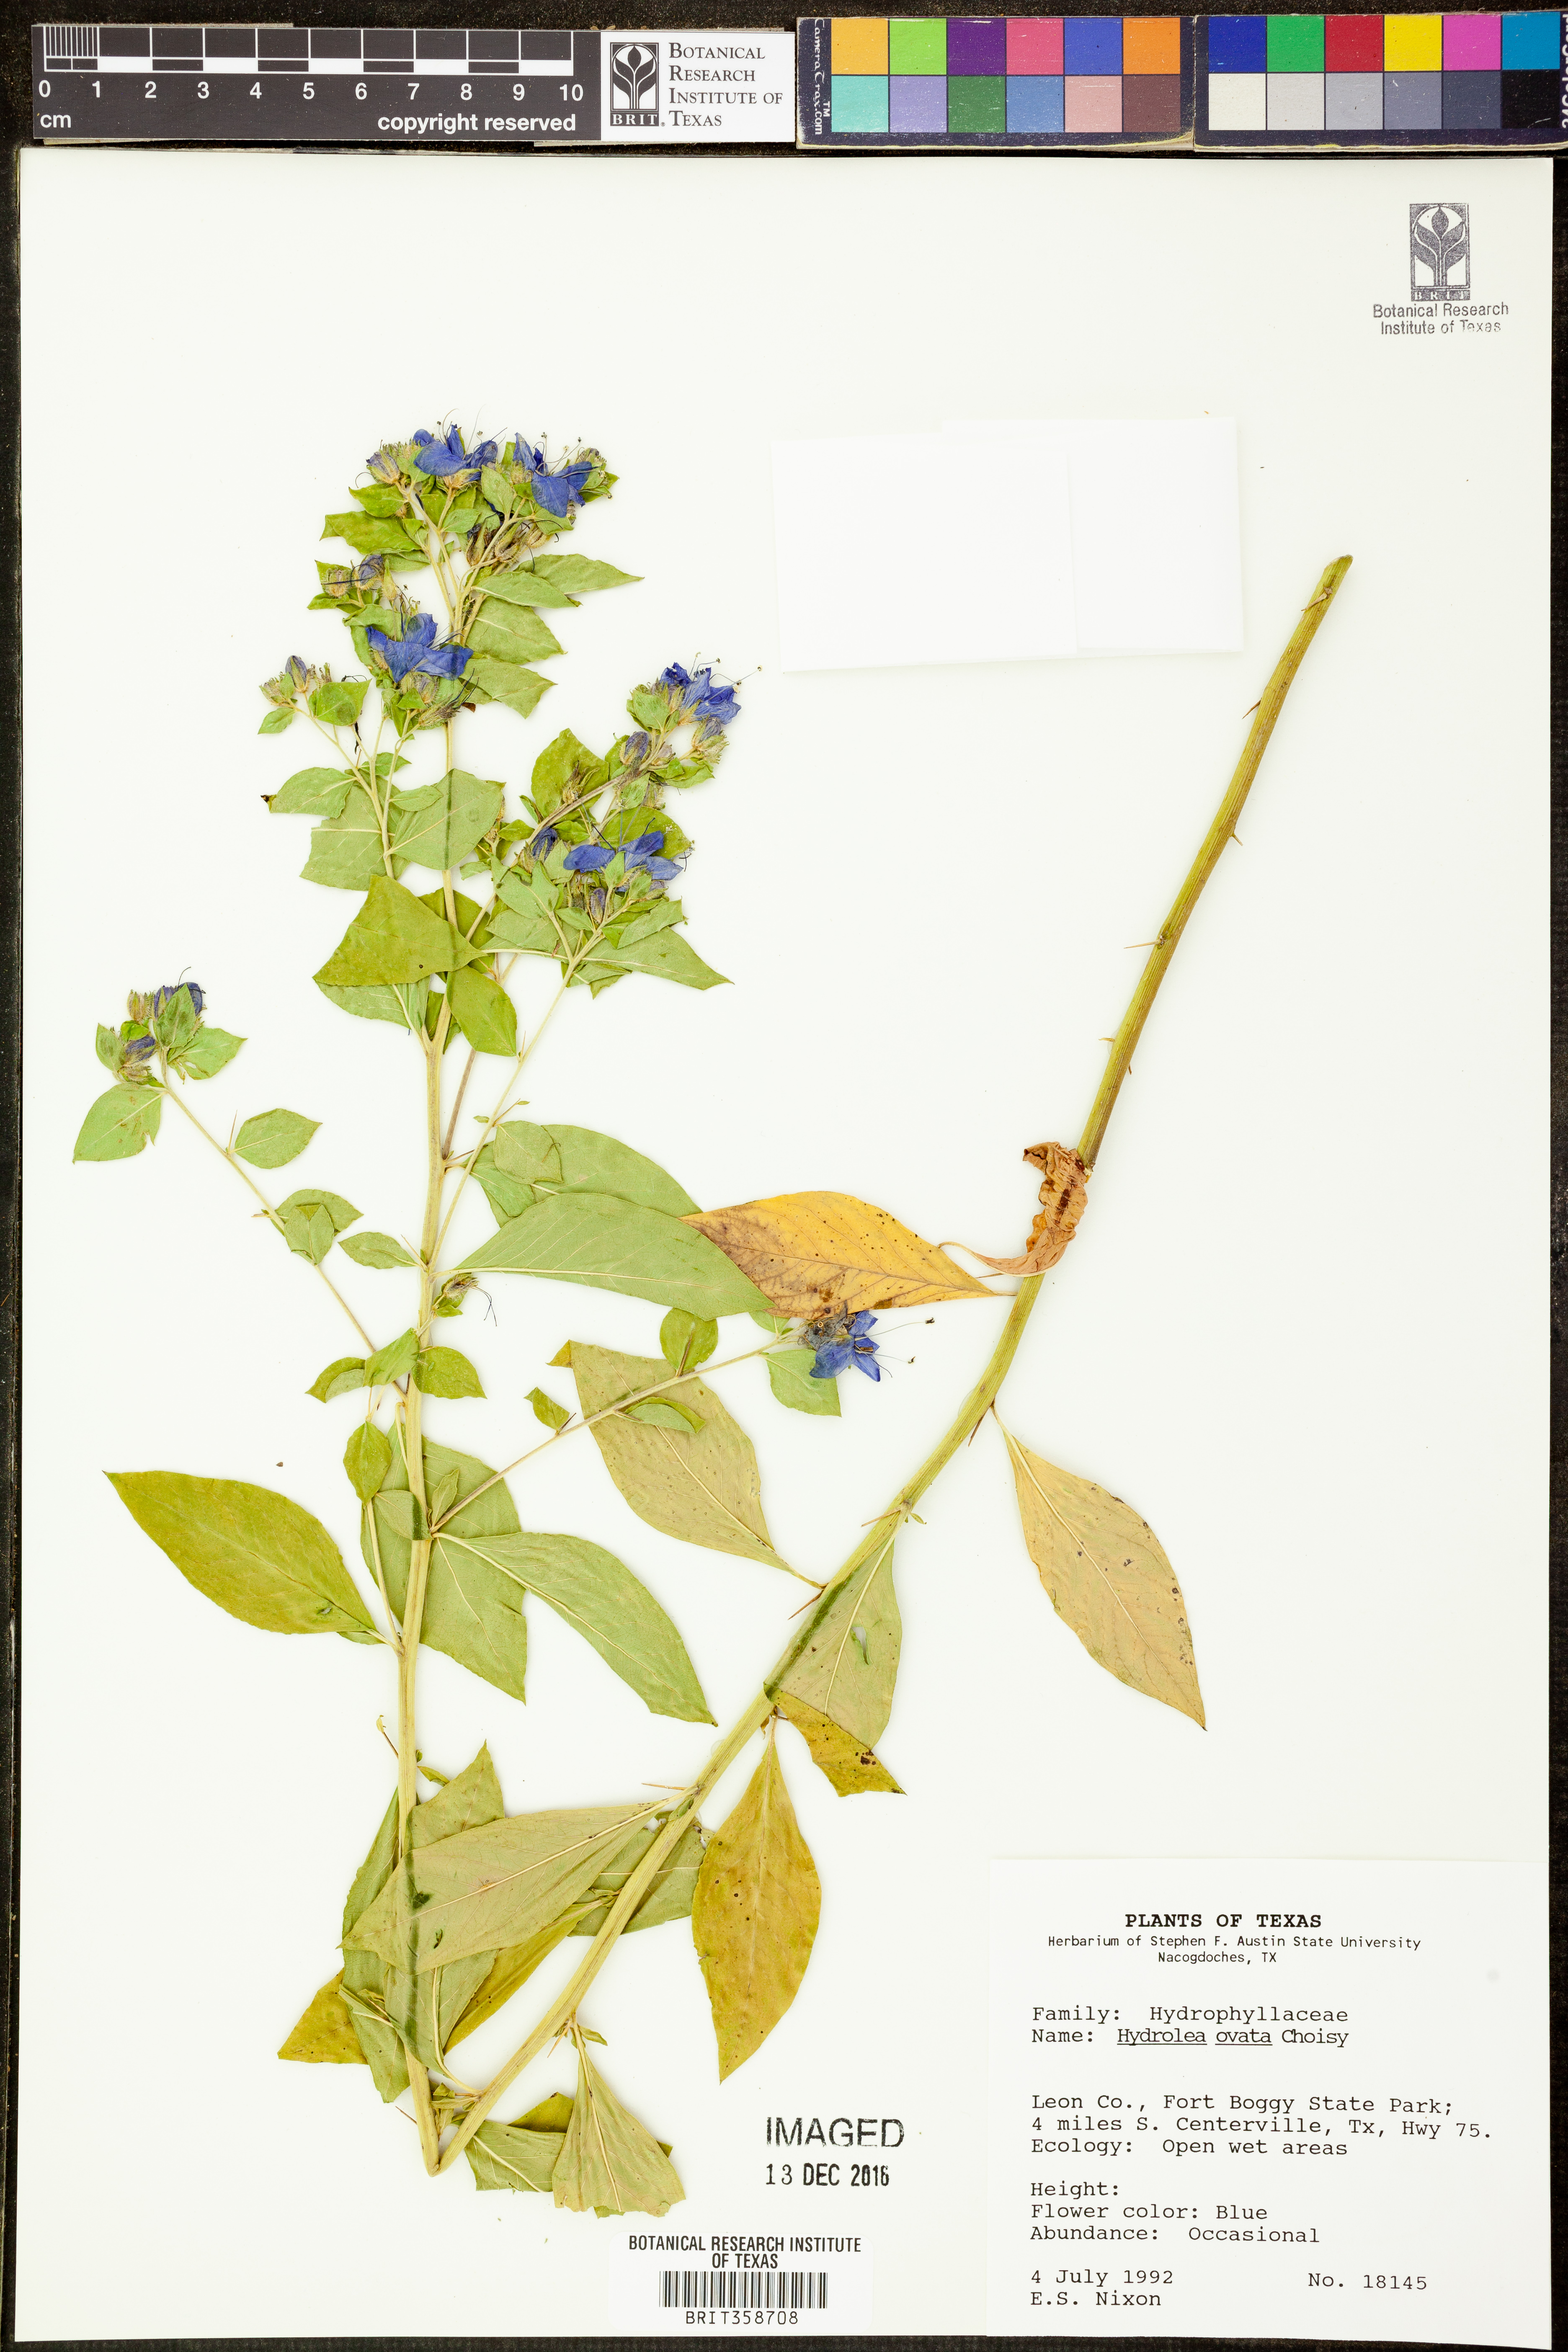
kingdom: Plantae
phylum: Tracheophyta
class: Magnoliopsida
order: Solanales
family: Hydroleaceae
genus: Hydrolea
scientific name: Hydrolea ovata
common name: Ovate false fiddleleaf
